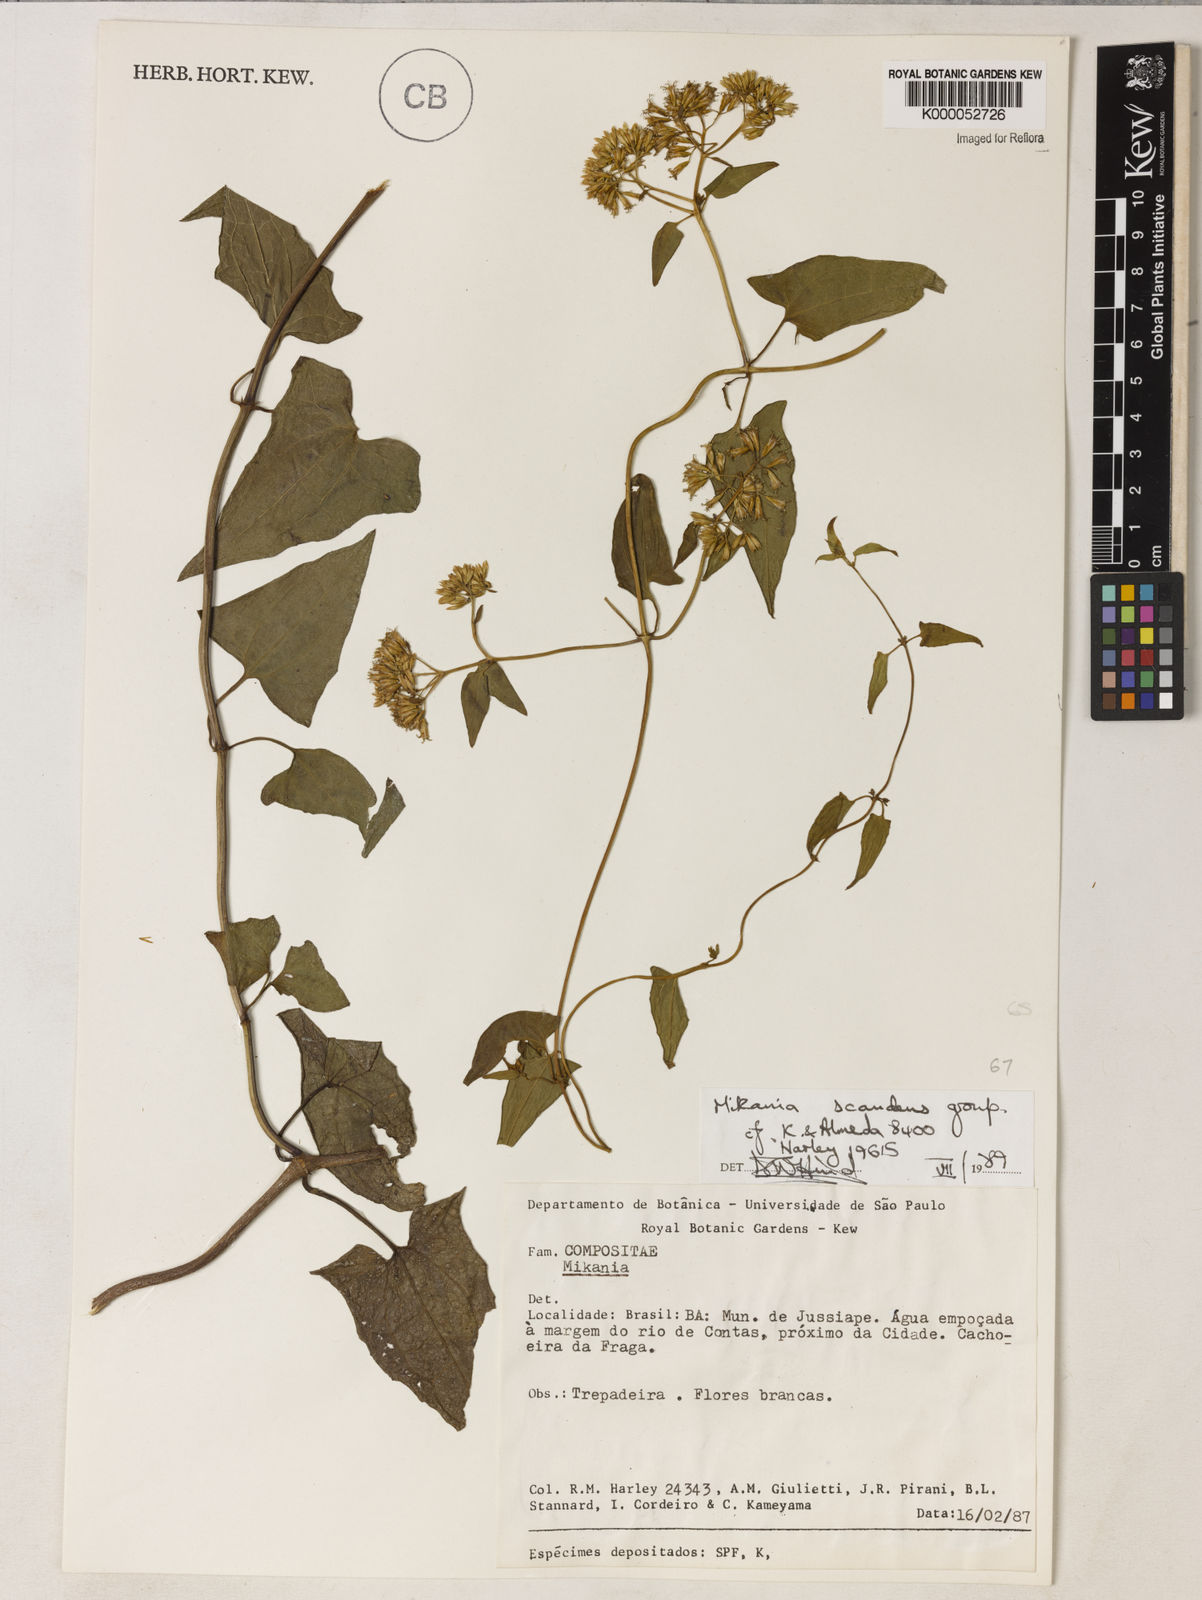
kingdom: Plantae
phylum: Tracheophyta
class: Magnoliopsida
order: Asterales
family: Asteraceae
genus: Mikania
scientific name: Mikania scandens
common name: Climbing hempvine
